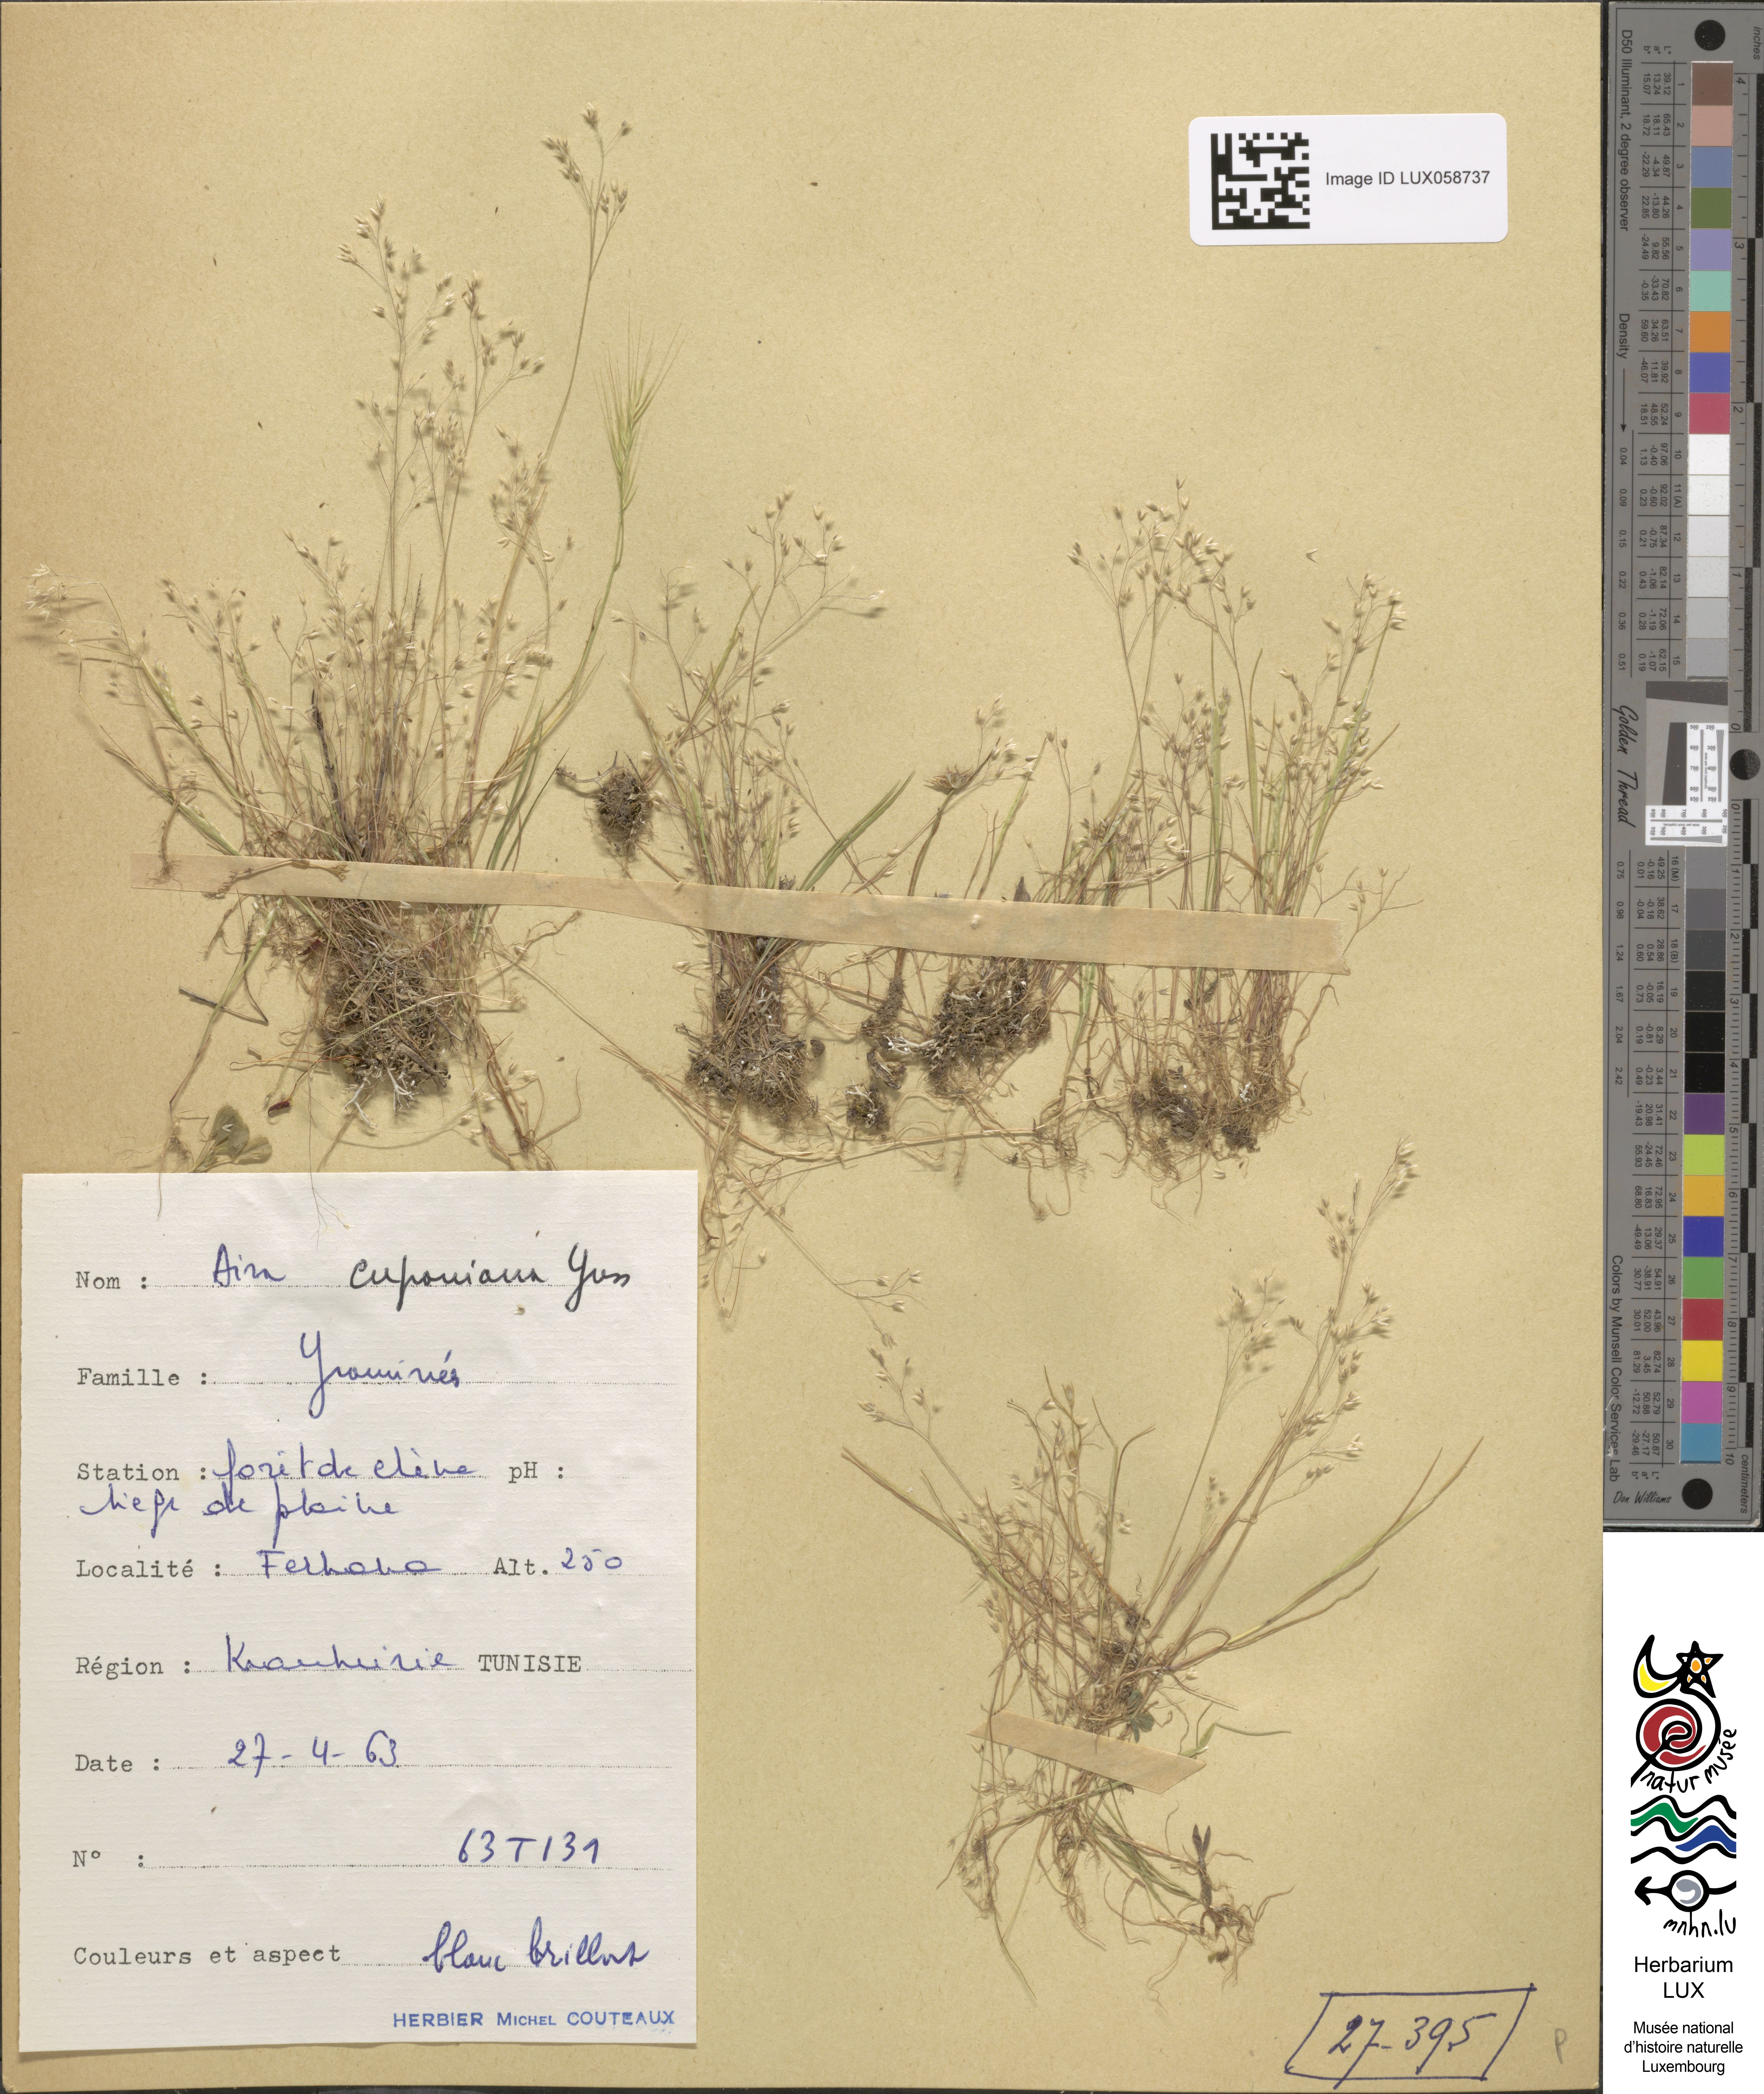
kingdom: Plantae
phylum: Tracheophyta
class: Liliopsida
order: Poales
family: Poaceae
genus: Aira
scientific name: Aira cupaniana
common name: Silver hairgrass
